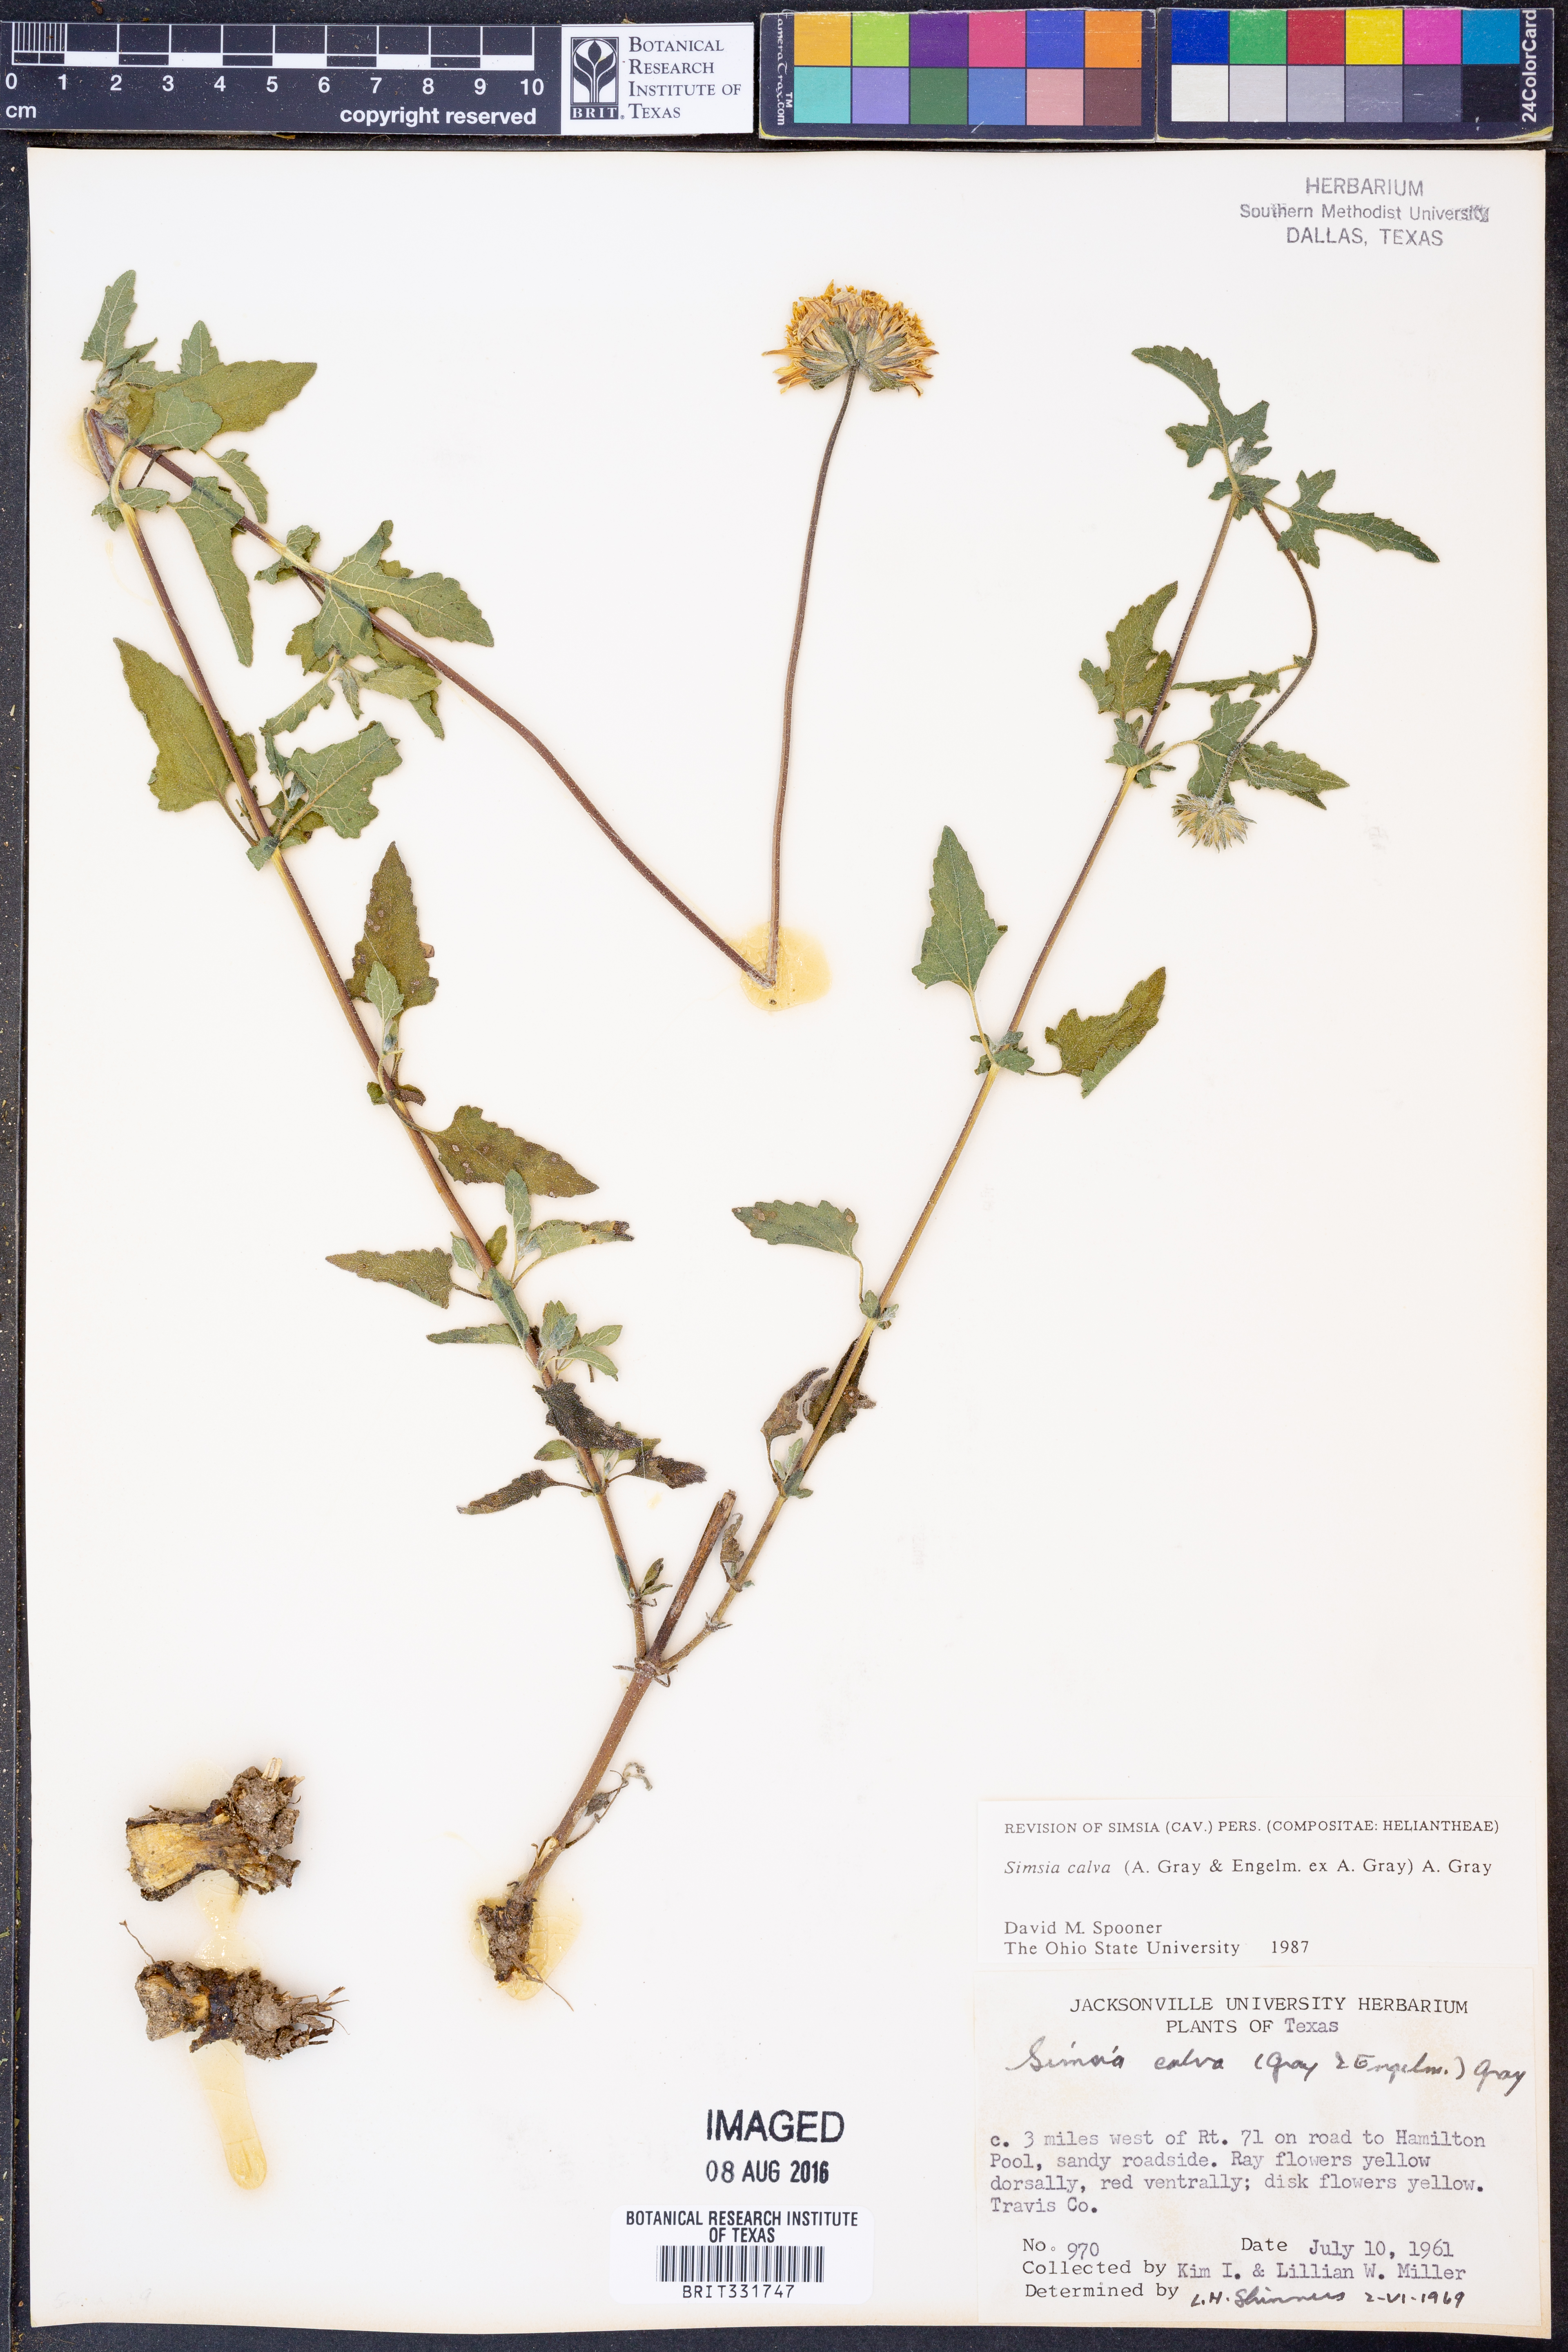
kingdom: Plantae
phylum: Tracheophyta
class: Magnoliopsida
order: Asterales
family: Asteraceae
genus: Simsia
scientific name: Simsia calva
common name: Awnless bush-sunflower
